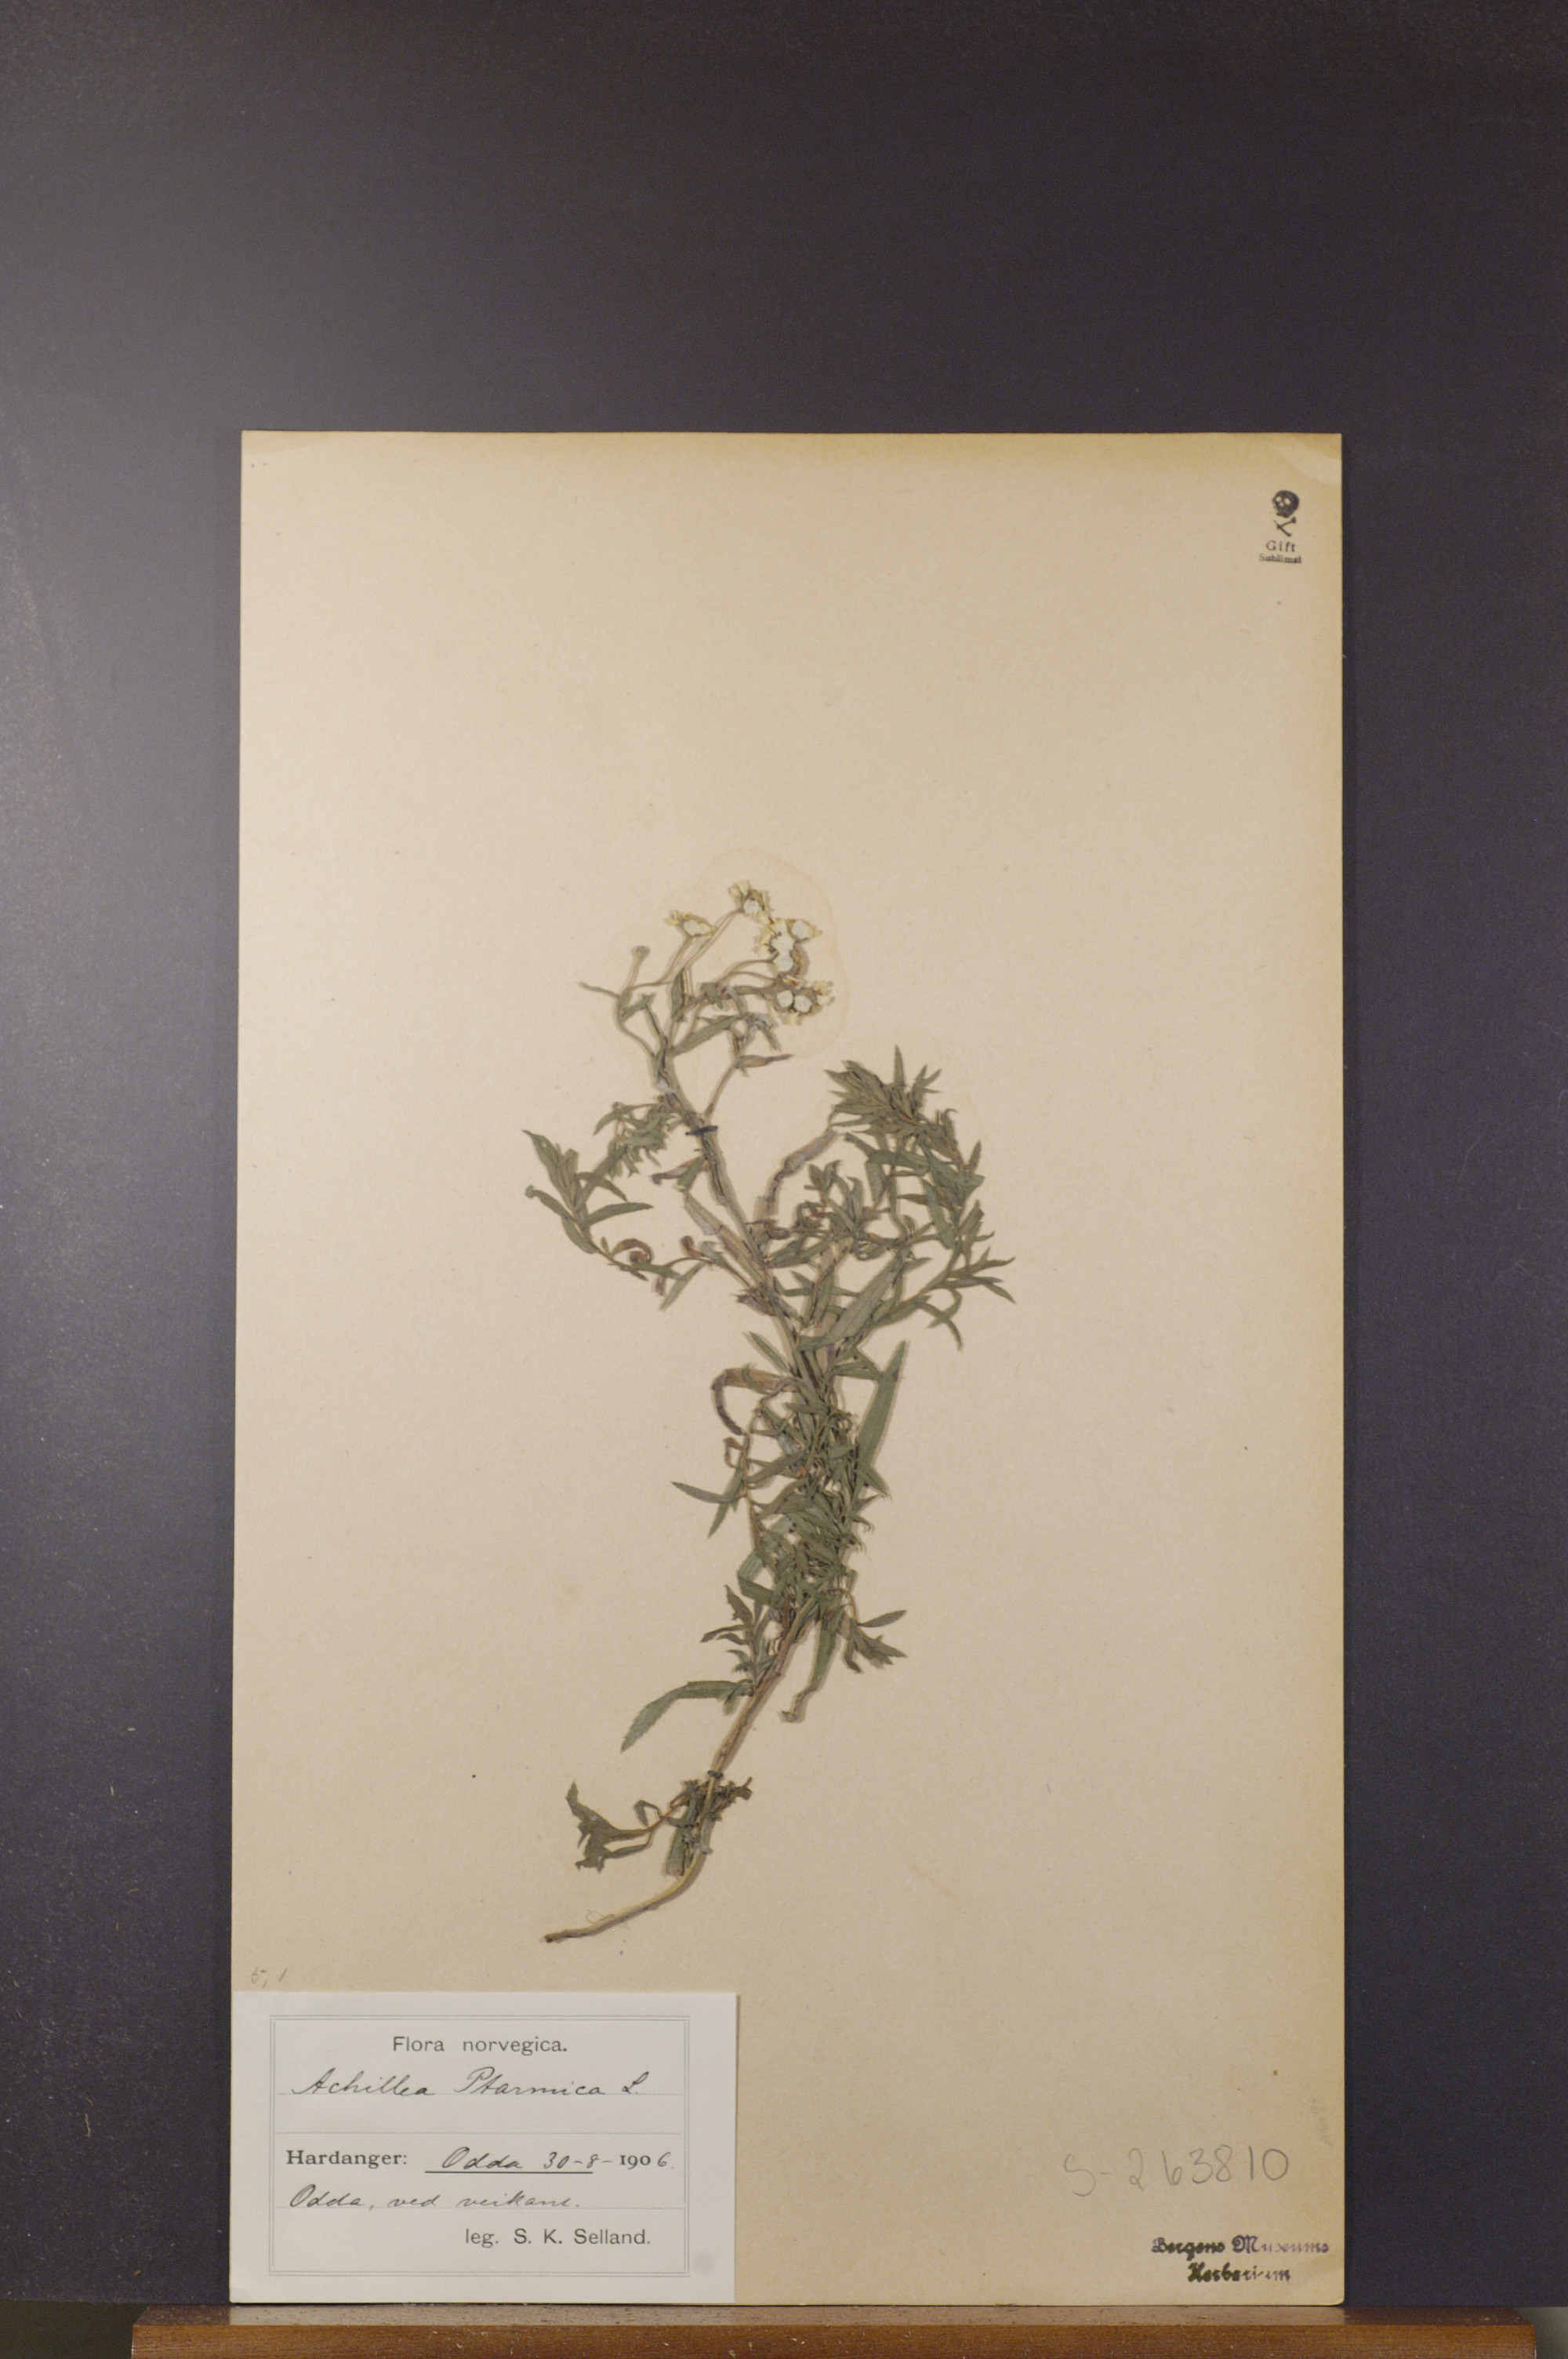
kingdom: Plantae
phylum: Tracheophyta
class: Magnoliopsida
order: Asterales
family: Asteraceae
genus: Achillea
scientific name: Achillea ptarmica
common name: Sneezeweed
